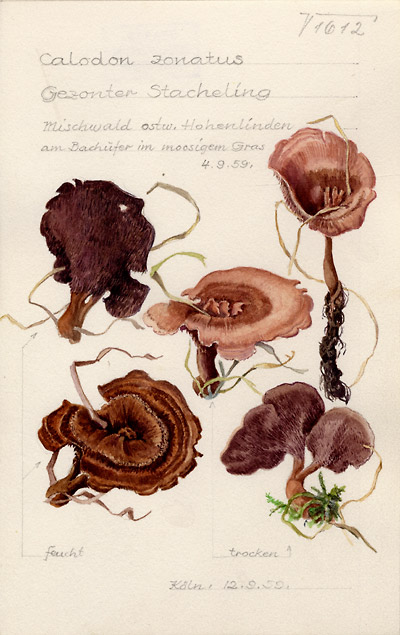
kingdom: Fungi
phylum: Basidiomycota
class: Agaricomycetes
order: Thelephorales
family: Bankeraceae
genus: Hydnellum
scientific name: Hydnellum concrescens
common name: Zoned tooth
